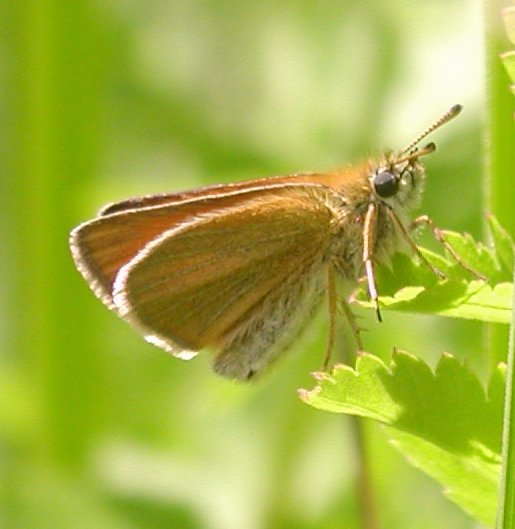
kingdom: Animalia
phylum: Arthropoda
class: Insecta
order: Lepidoptera
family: Hesperiidae
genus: Thymelicus
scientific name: Thymelicus lineola
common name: European Skipper
